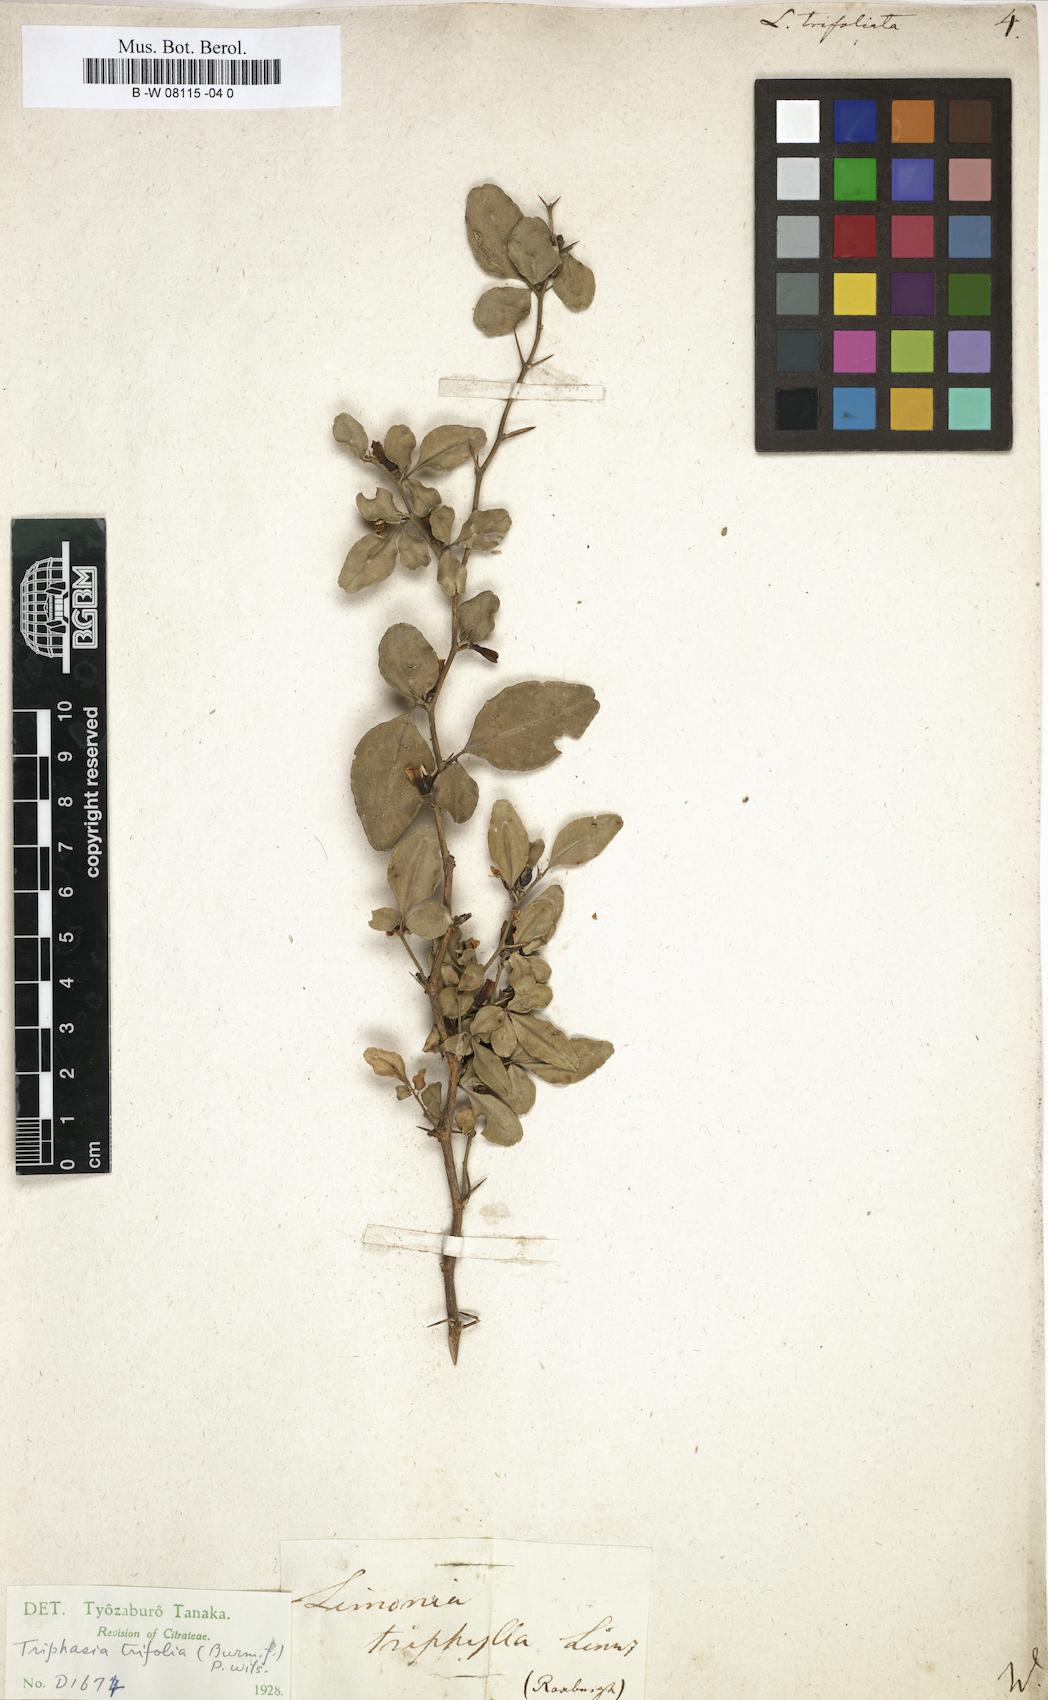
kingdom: Plantae
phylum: Tracheophyta
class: Magnoliopsida
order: Sapindales
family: Rutaceae
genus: Triphasia
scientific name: Triphasia trifolia
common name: Limeberry
